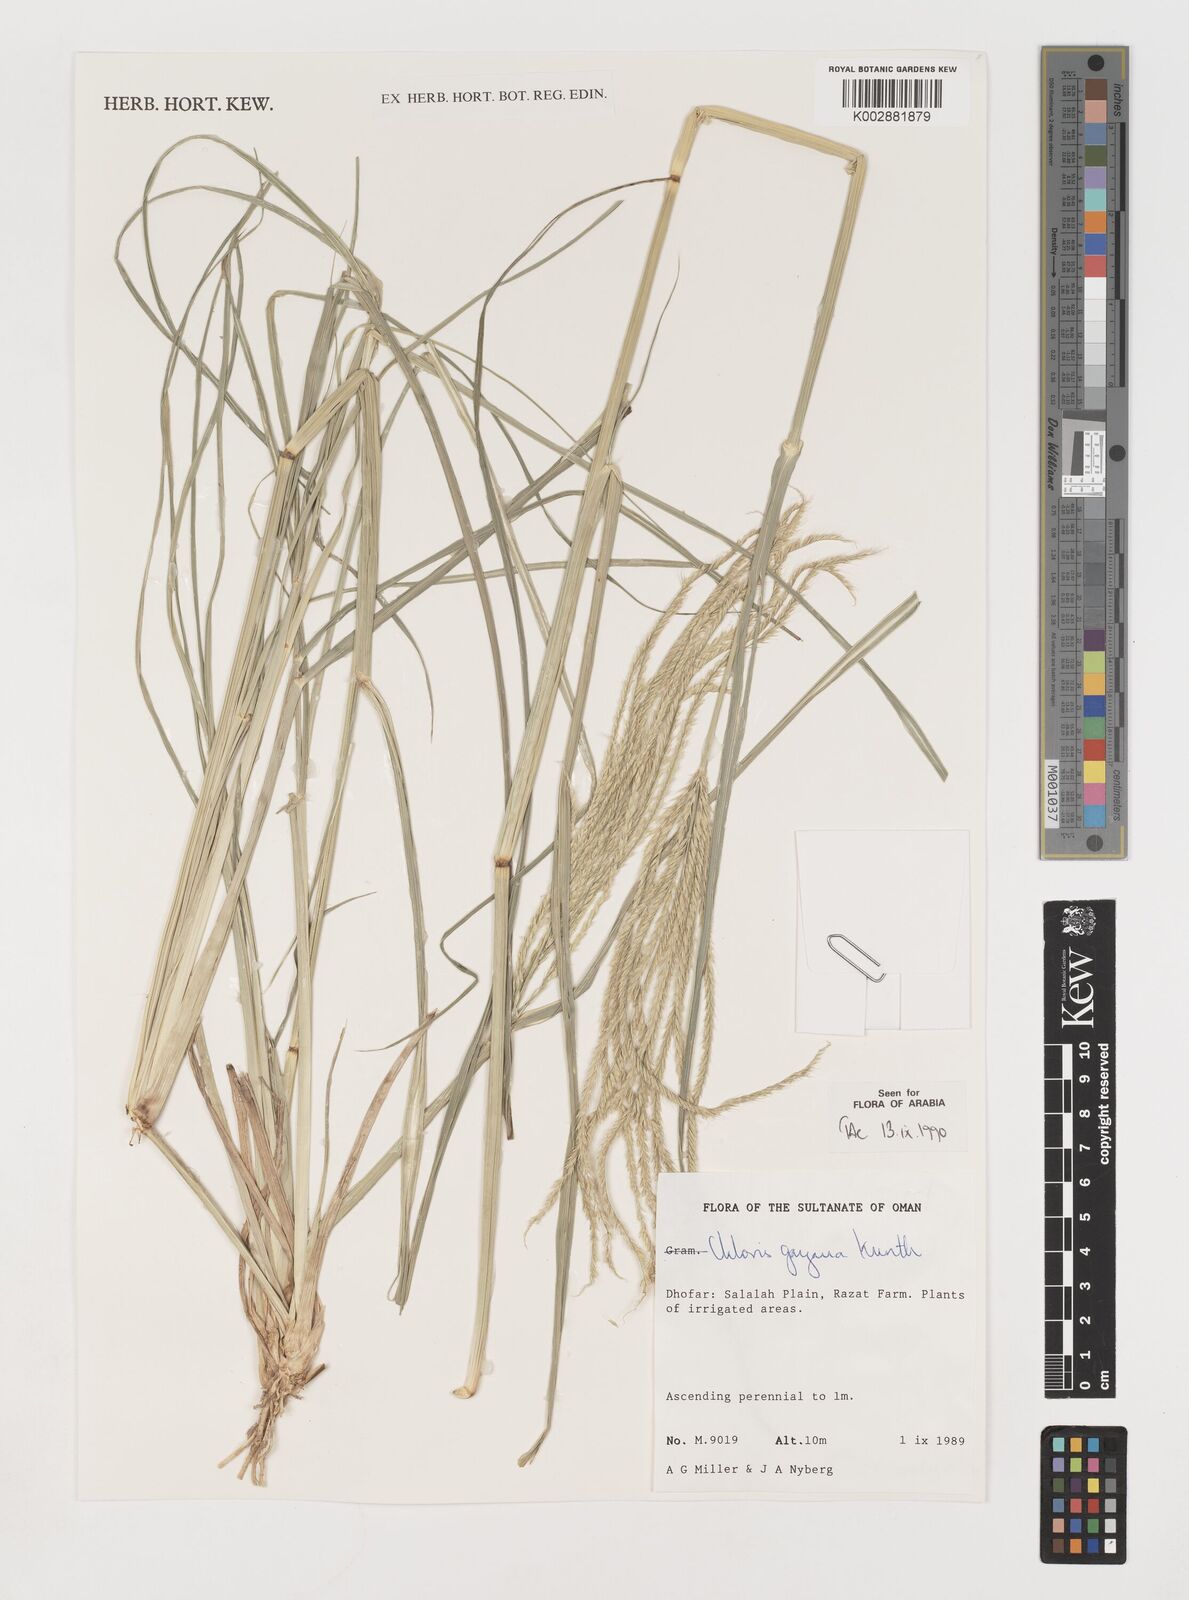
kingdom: Plantae
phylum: Tracheophyta
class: Liliopsida
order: Poales
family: Poaceae
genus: Chloris
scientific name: Chloris gayana
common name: Rhodes grass
